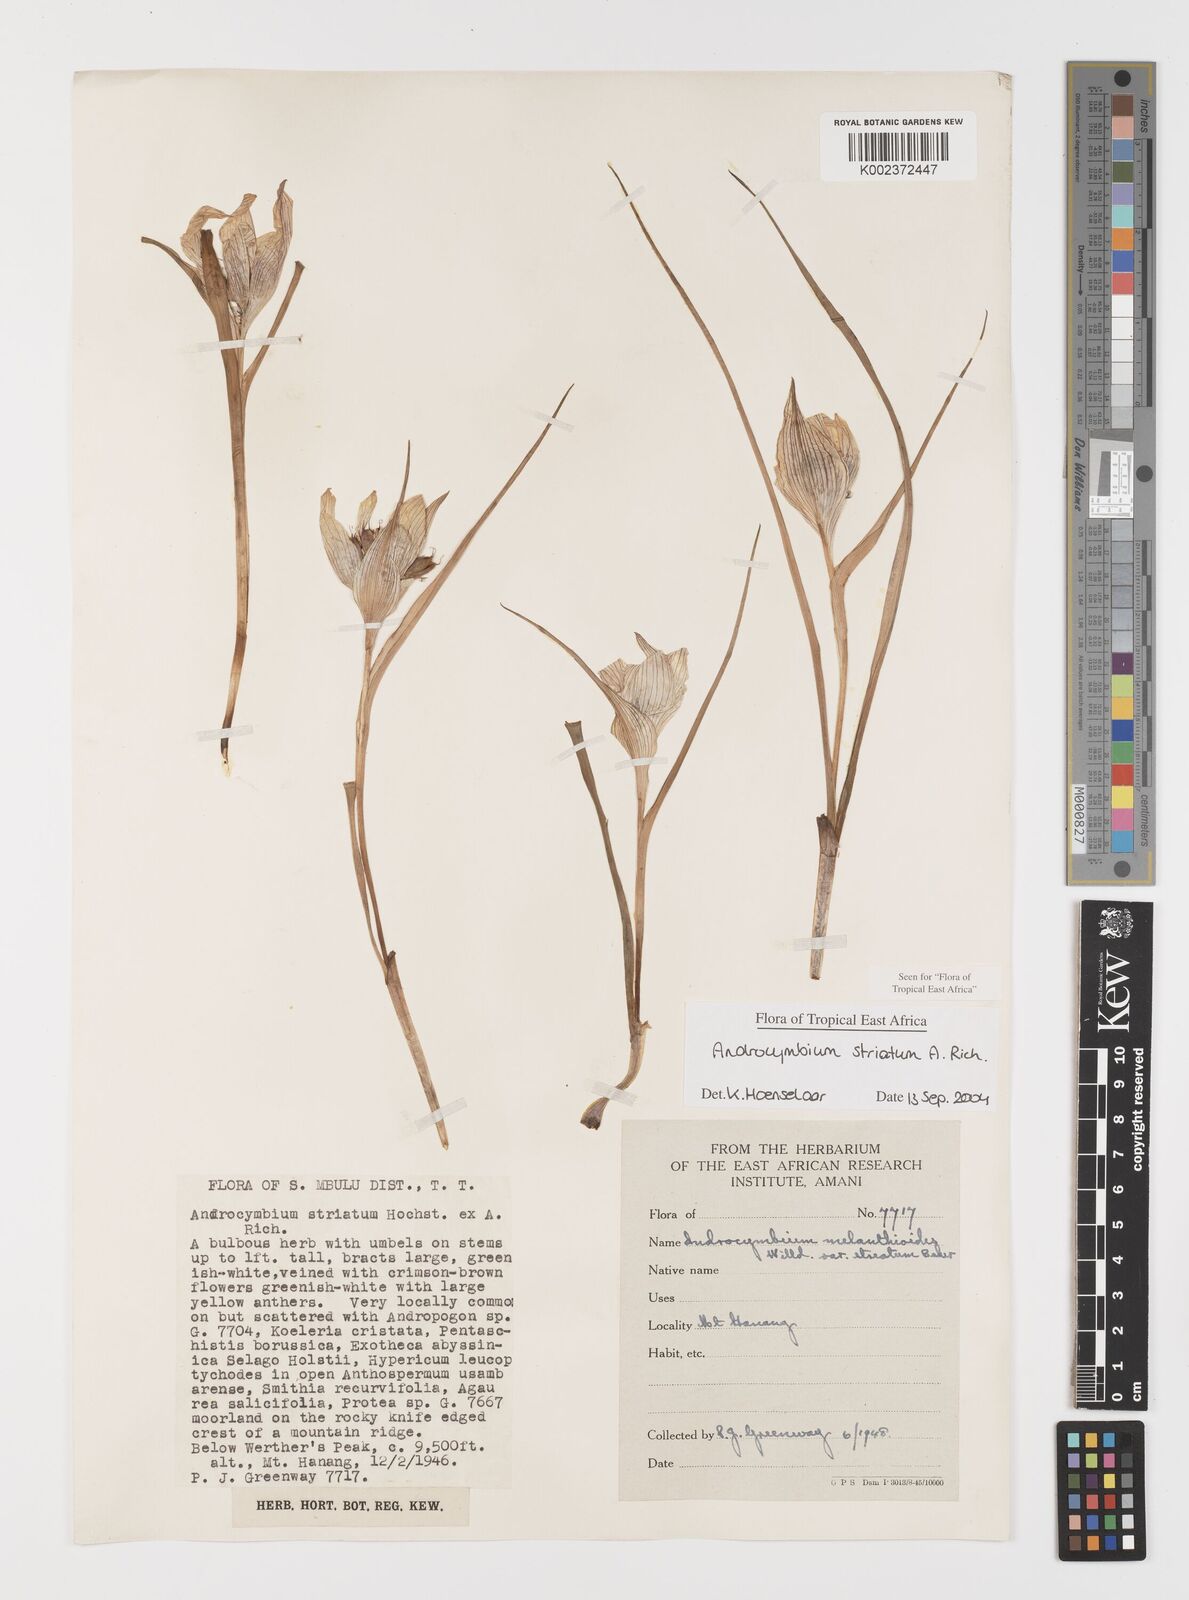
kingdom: Plantae
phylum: Tracheophyta
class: Liliopsida
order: Liliales
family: Colchicaceae
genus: Colchicum
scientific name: Colchicum striatum
